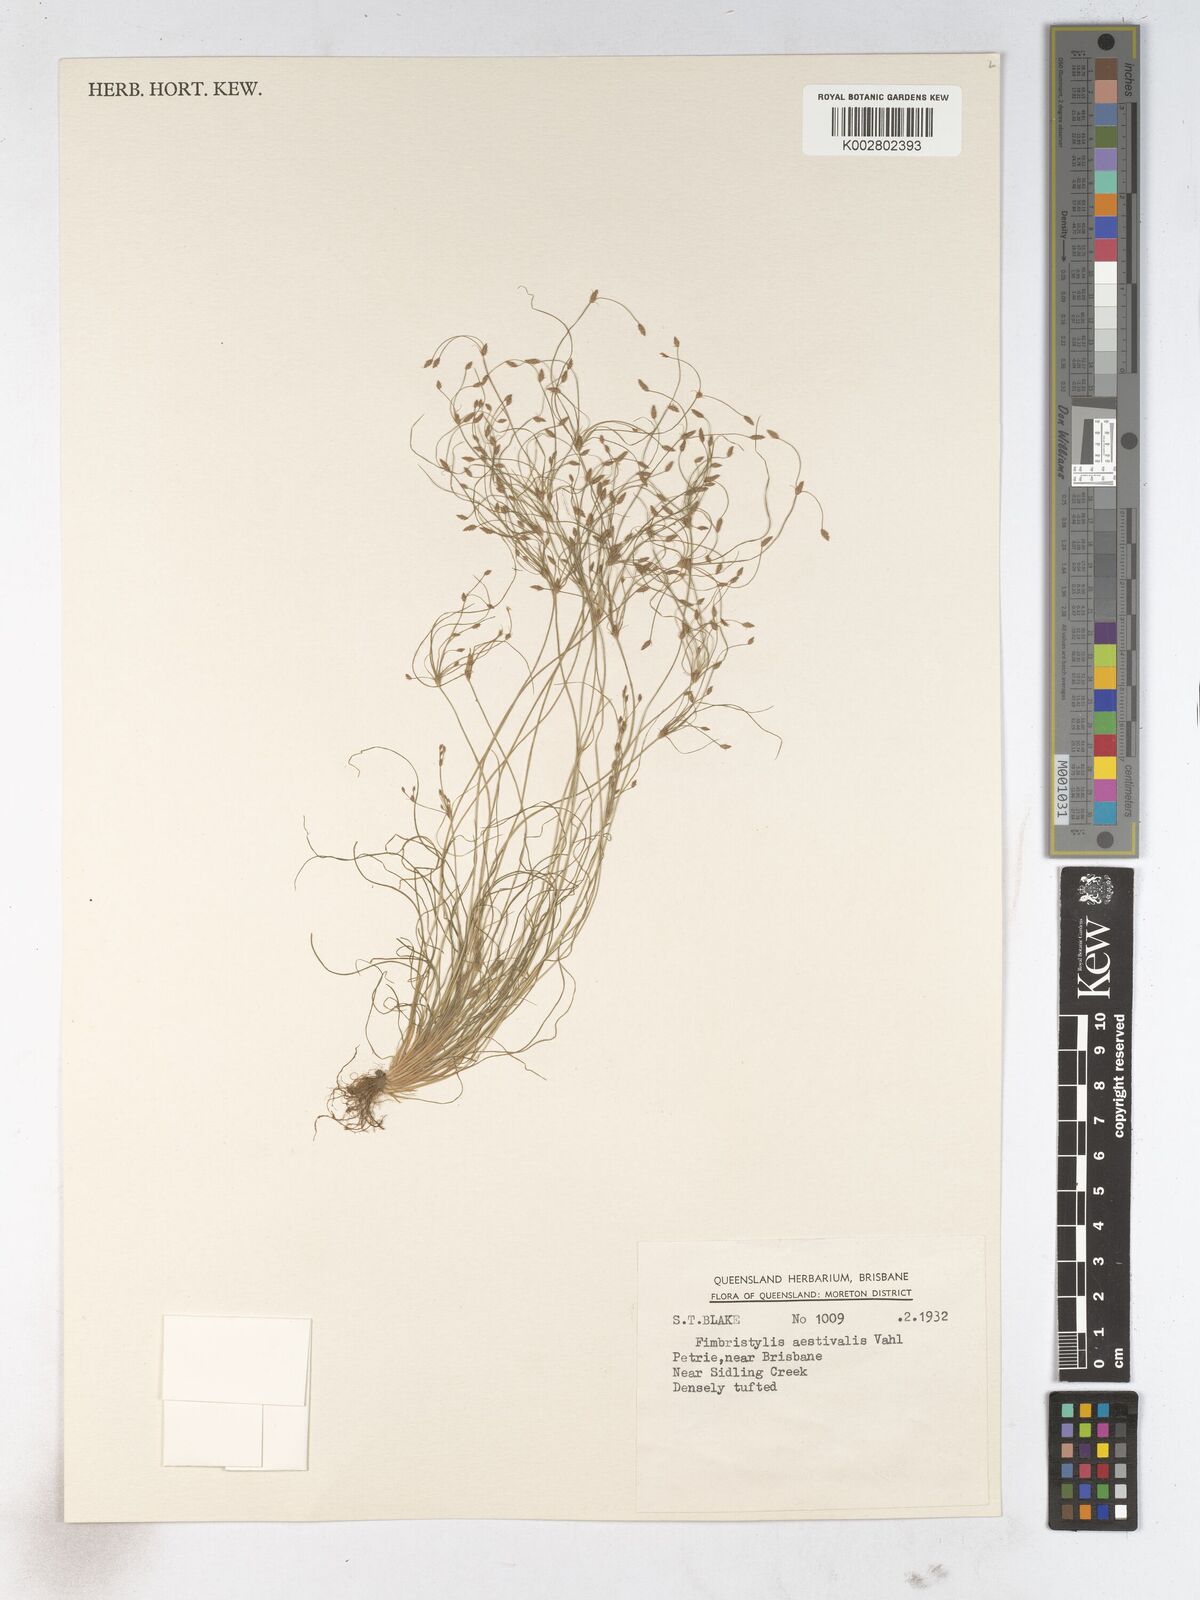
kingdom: Plantae
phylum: Tracheophyta
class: Liliopsida
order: Poales
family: Cyperaceae
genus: Fimbristylis
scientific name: Fimbristylis aestivalis
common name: Summer fimbry
